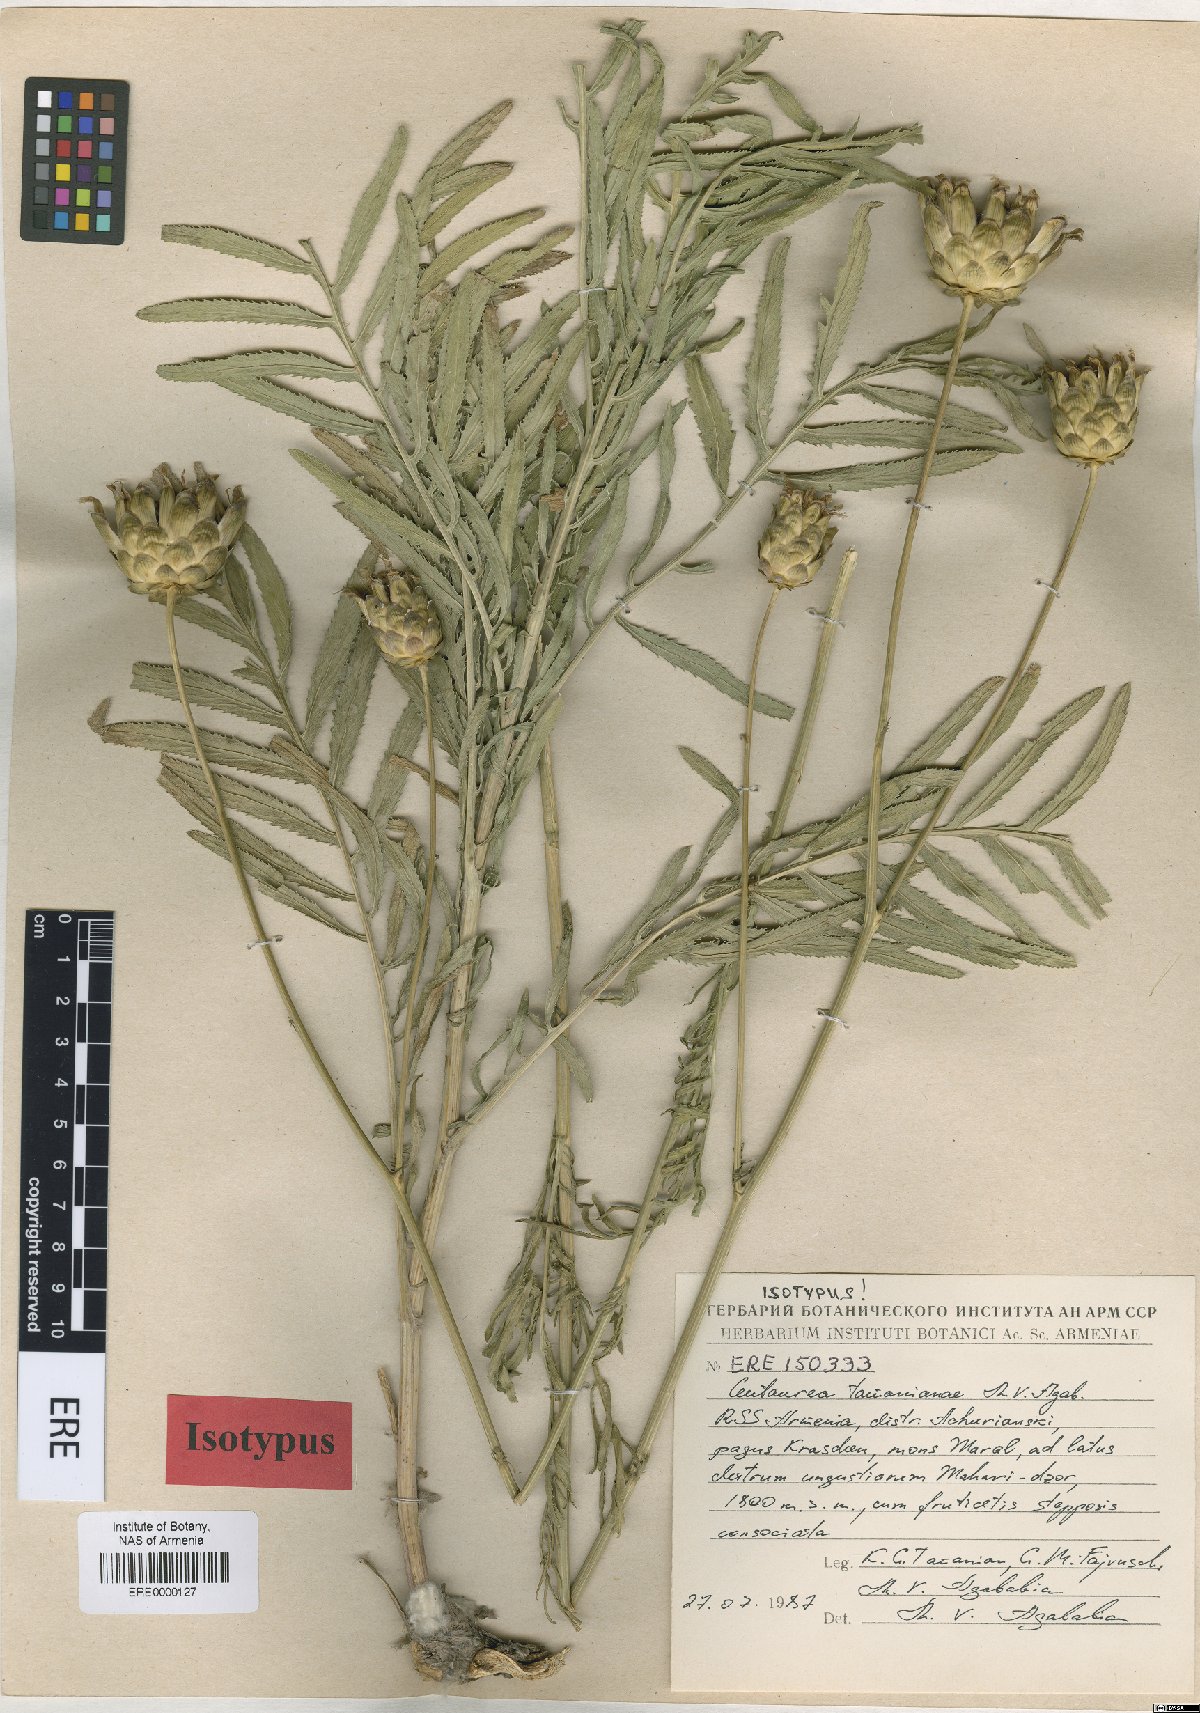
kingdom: Plantae
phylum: Tracheophyta
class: Magnoliopsida
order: Asterales
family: Asteraceae
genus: Rhaponticoides
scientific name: Rhaponticoides tamanianae
